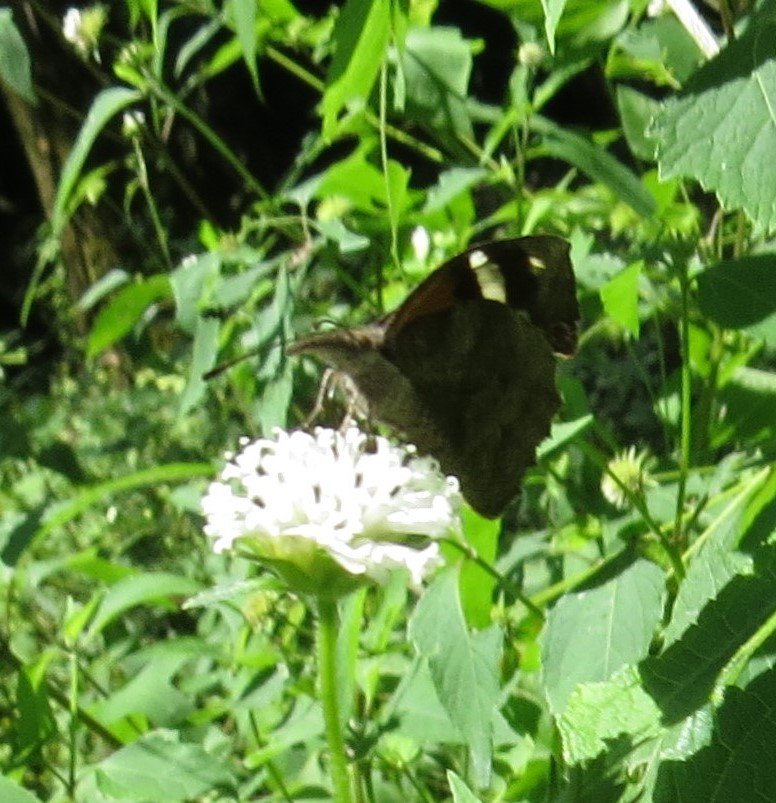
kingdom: Animalia
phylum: Arthropoda
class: Insecta
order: Lepidoptera
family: Nymphalidae
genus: Libytheana
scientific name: Libytheana carinenta
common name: American Snout
